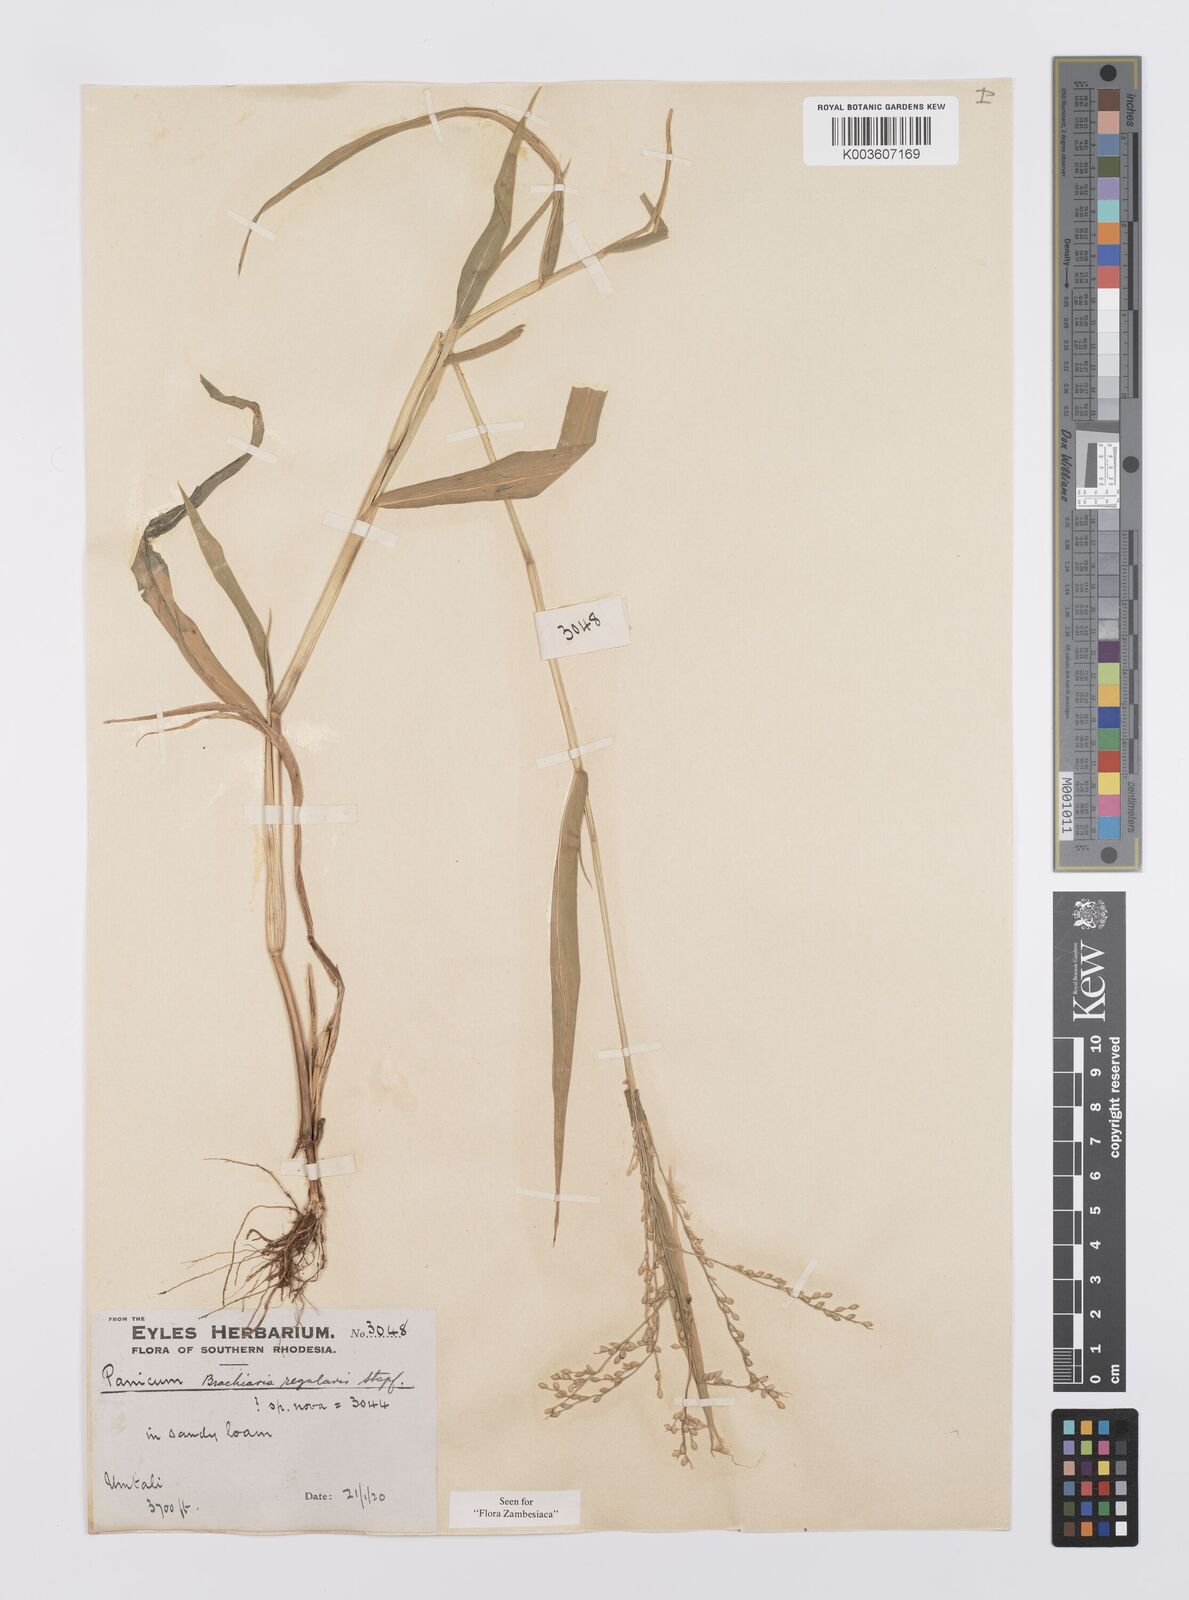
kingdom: Plantae
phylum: Tracheophyta
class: Liliopsida
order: Poales
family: Poaceae
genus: Urochloa
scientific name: Urochloa deflexa
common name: Guinea millet
